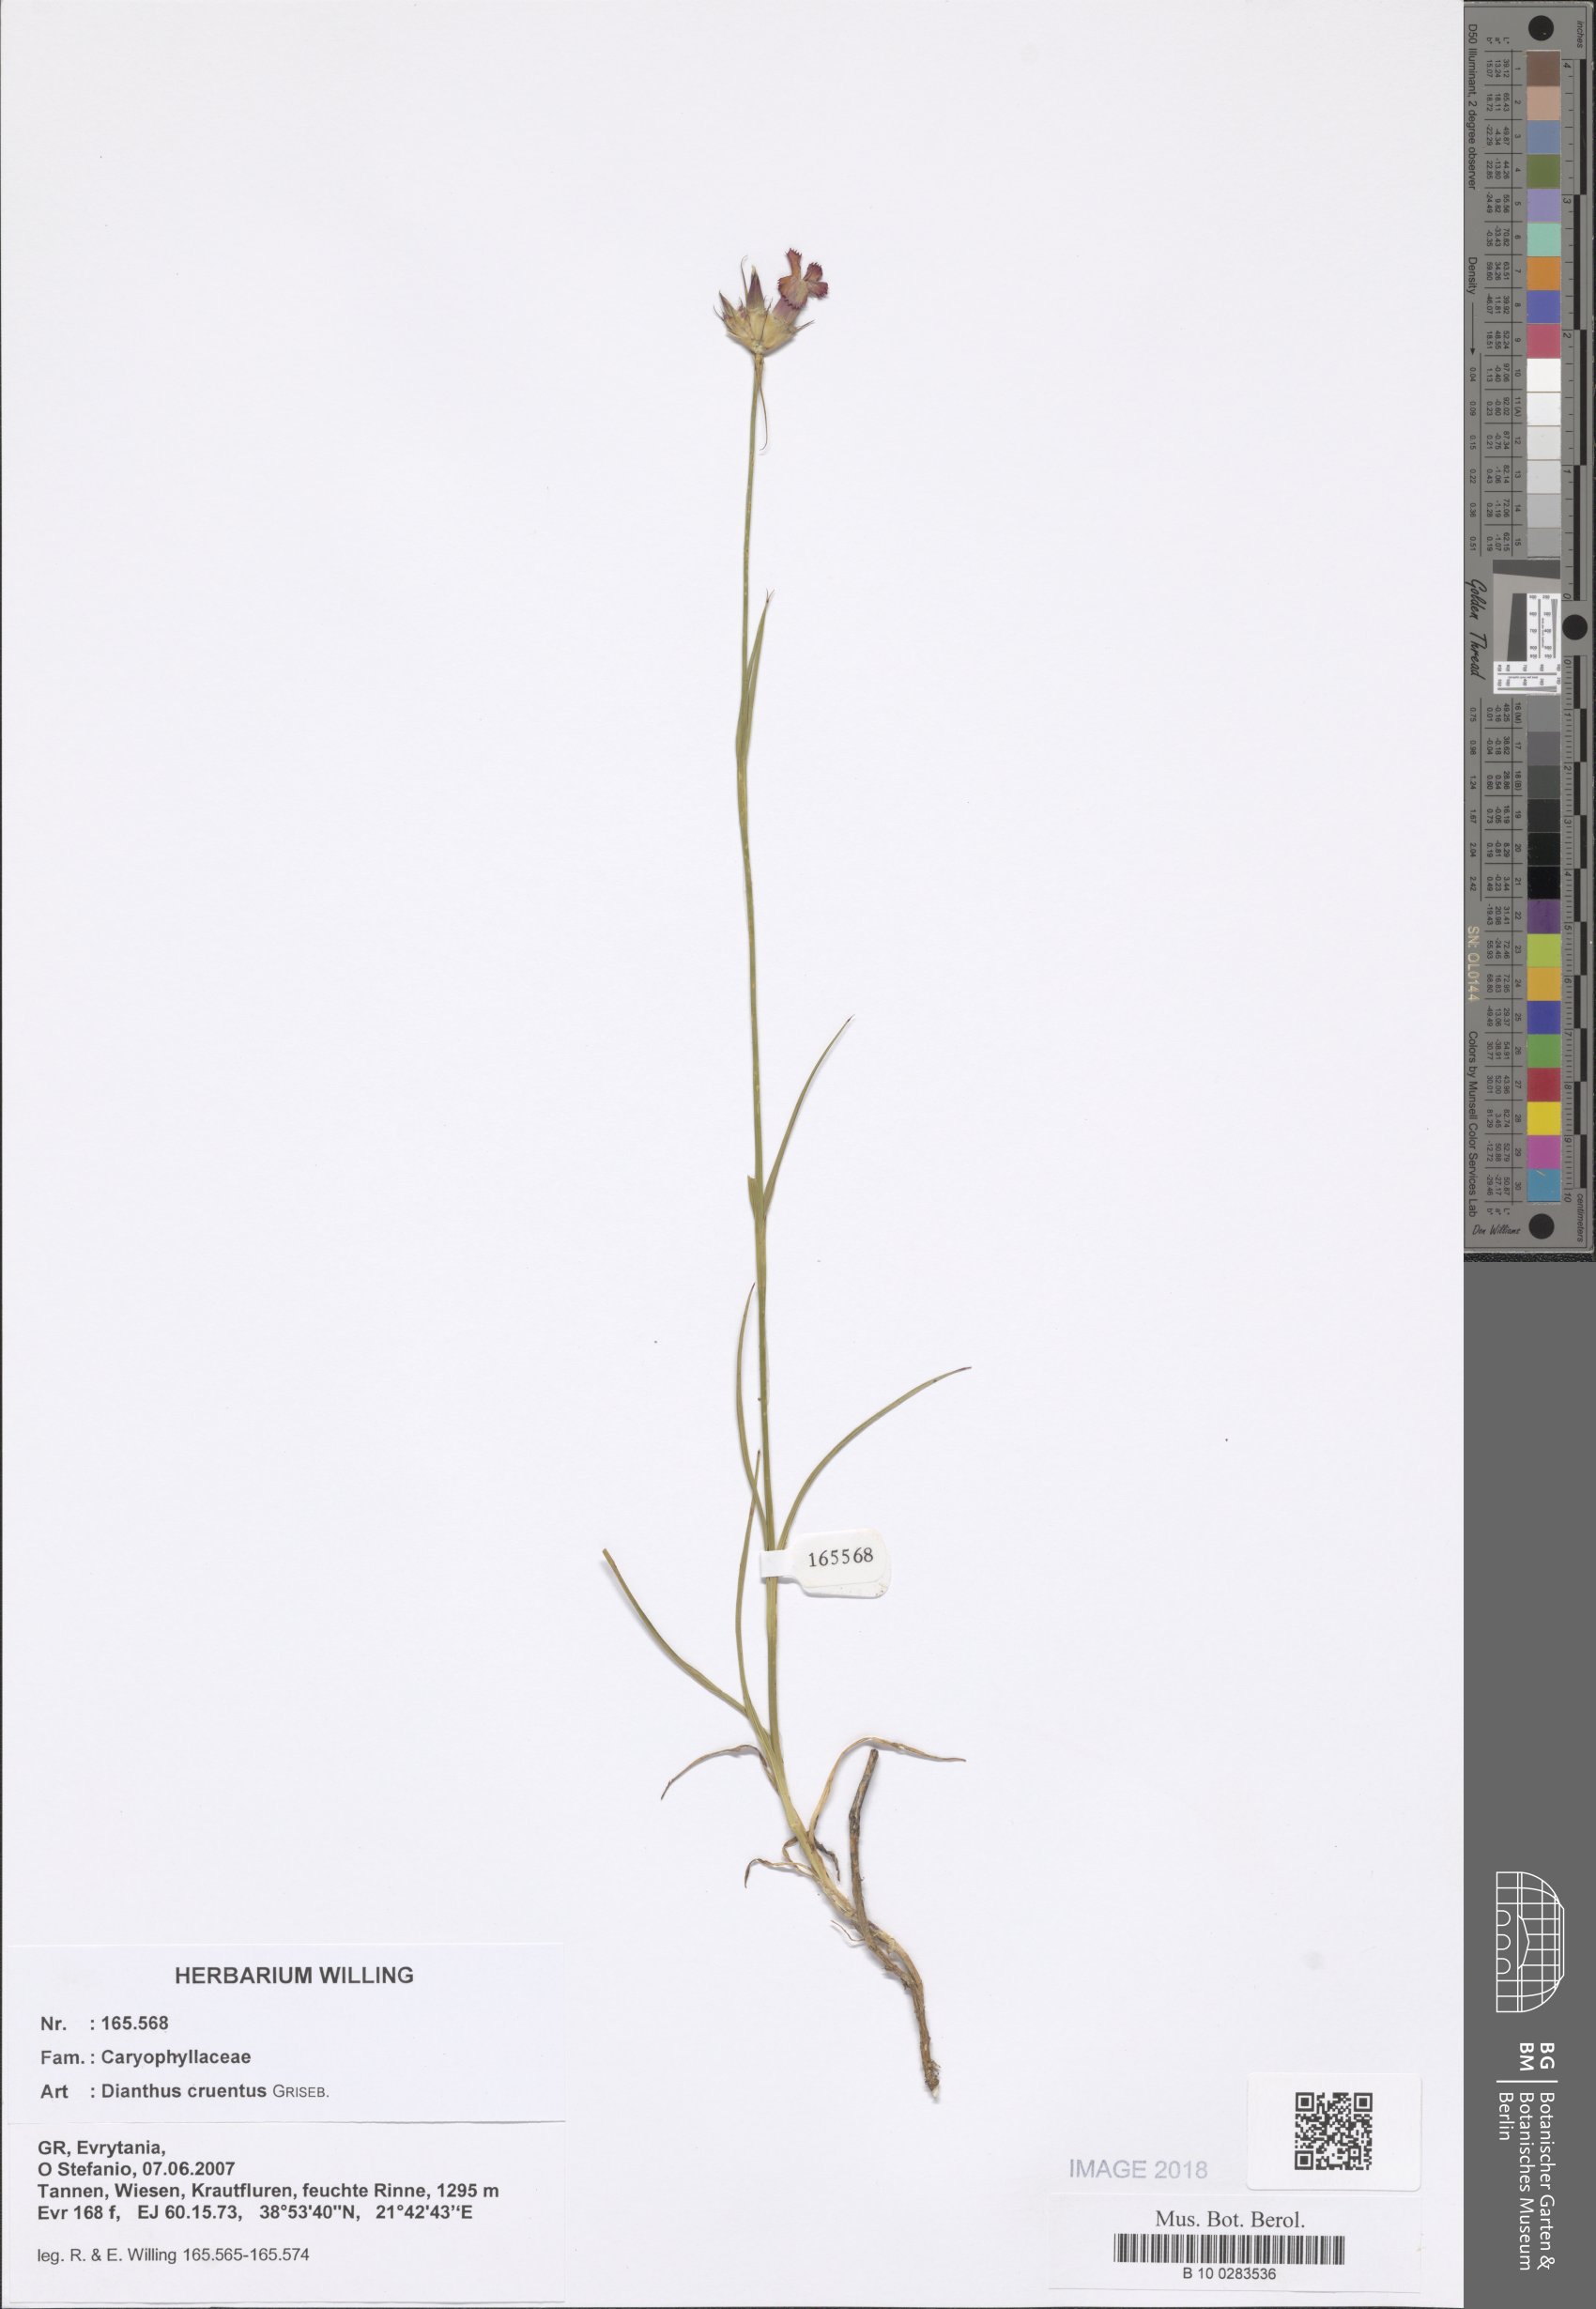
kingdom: Plantae
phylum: Tracheophyta
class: Magnoliopsida
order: Caryophyllales
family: Caryophyllaceae
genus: Dianthus
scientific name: Dianthus cruentus
